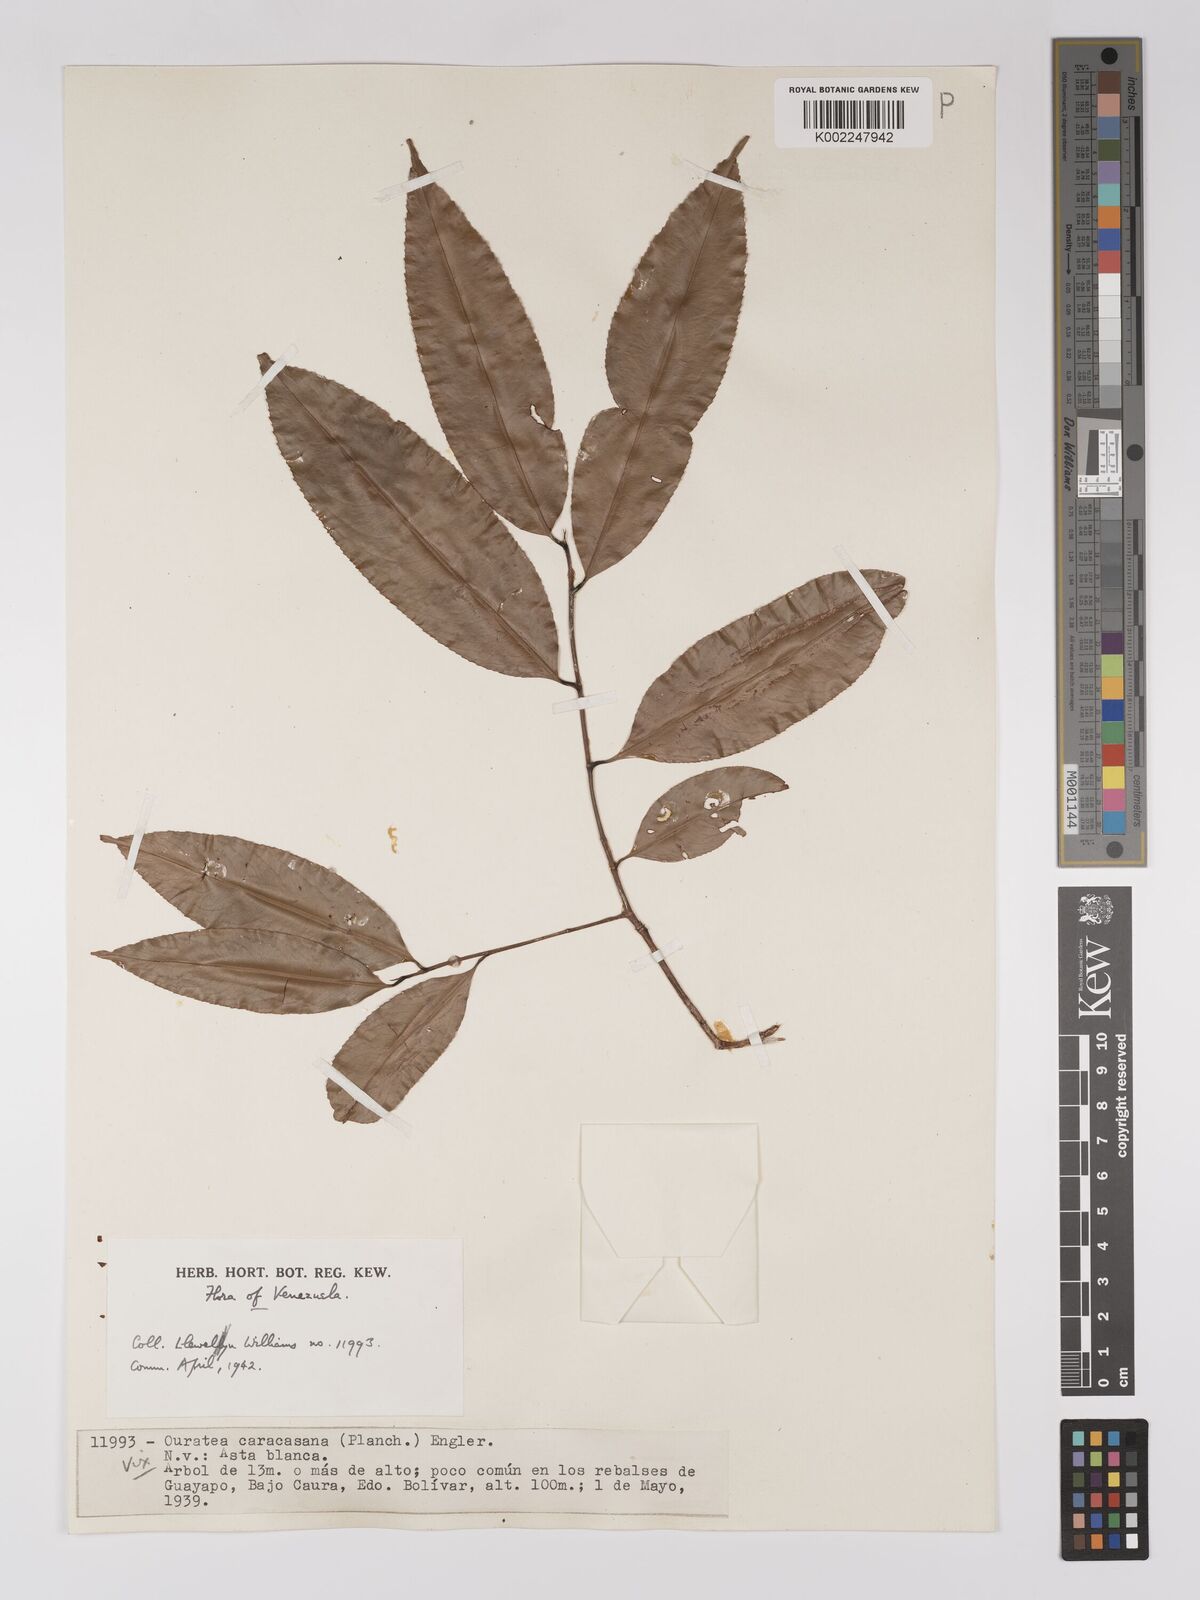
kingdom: Plantae
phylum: Tracheophyta
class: Magnoliopsida
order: Malpighiales
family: Ochnaceae
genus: Ouratea
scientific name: Ouratea caracasana
